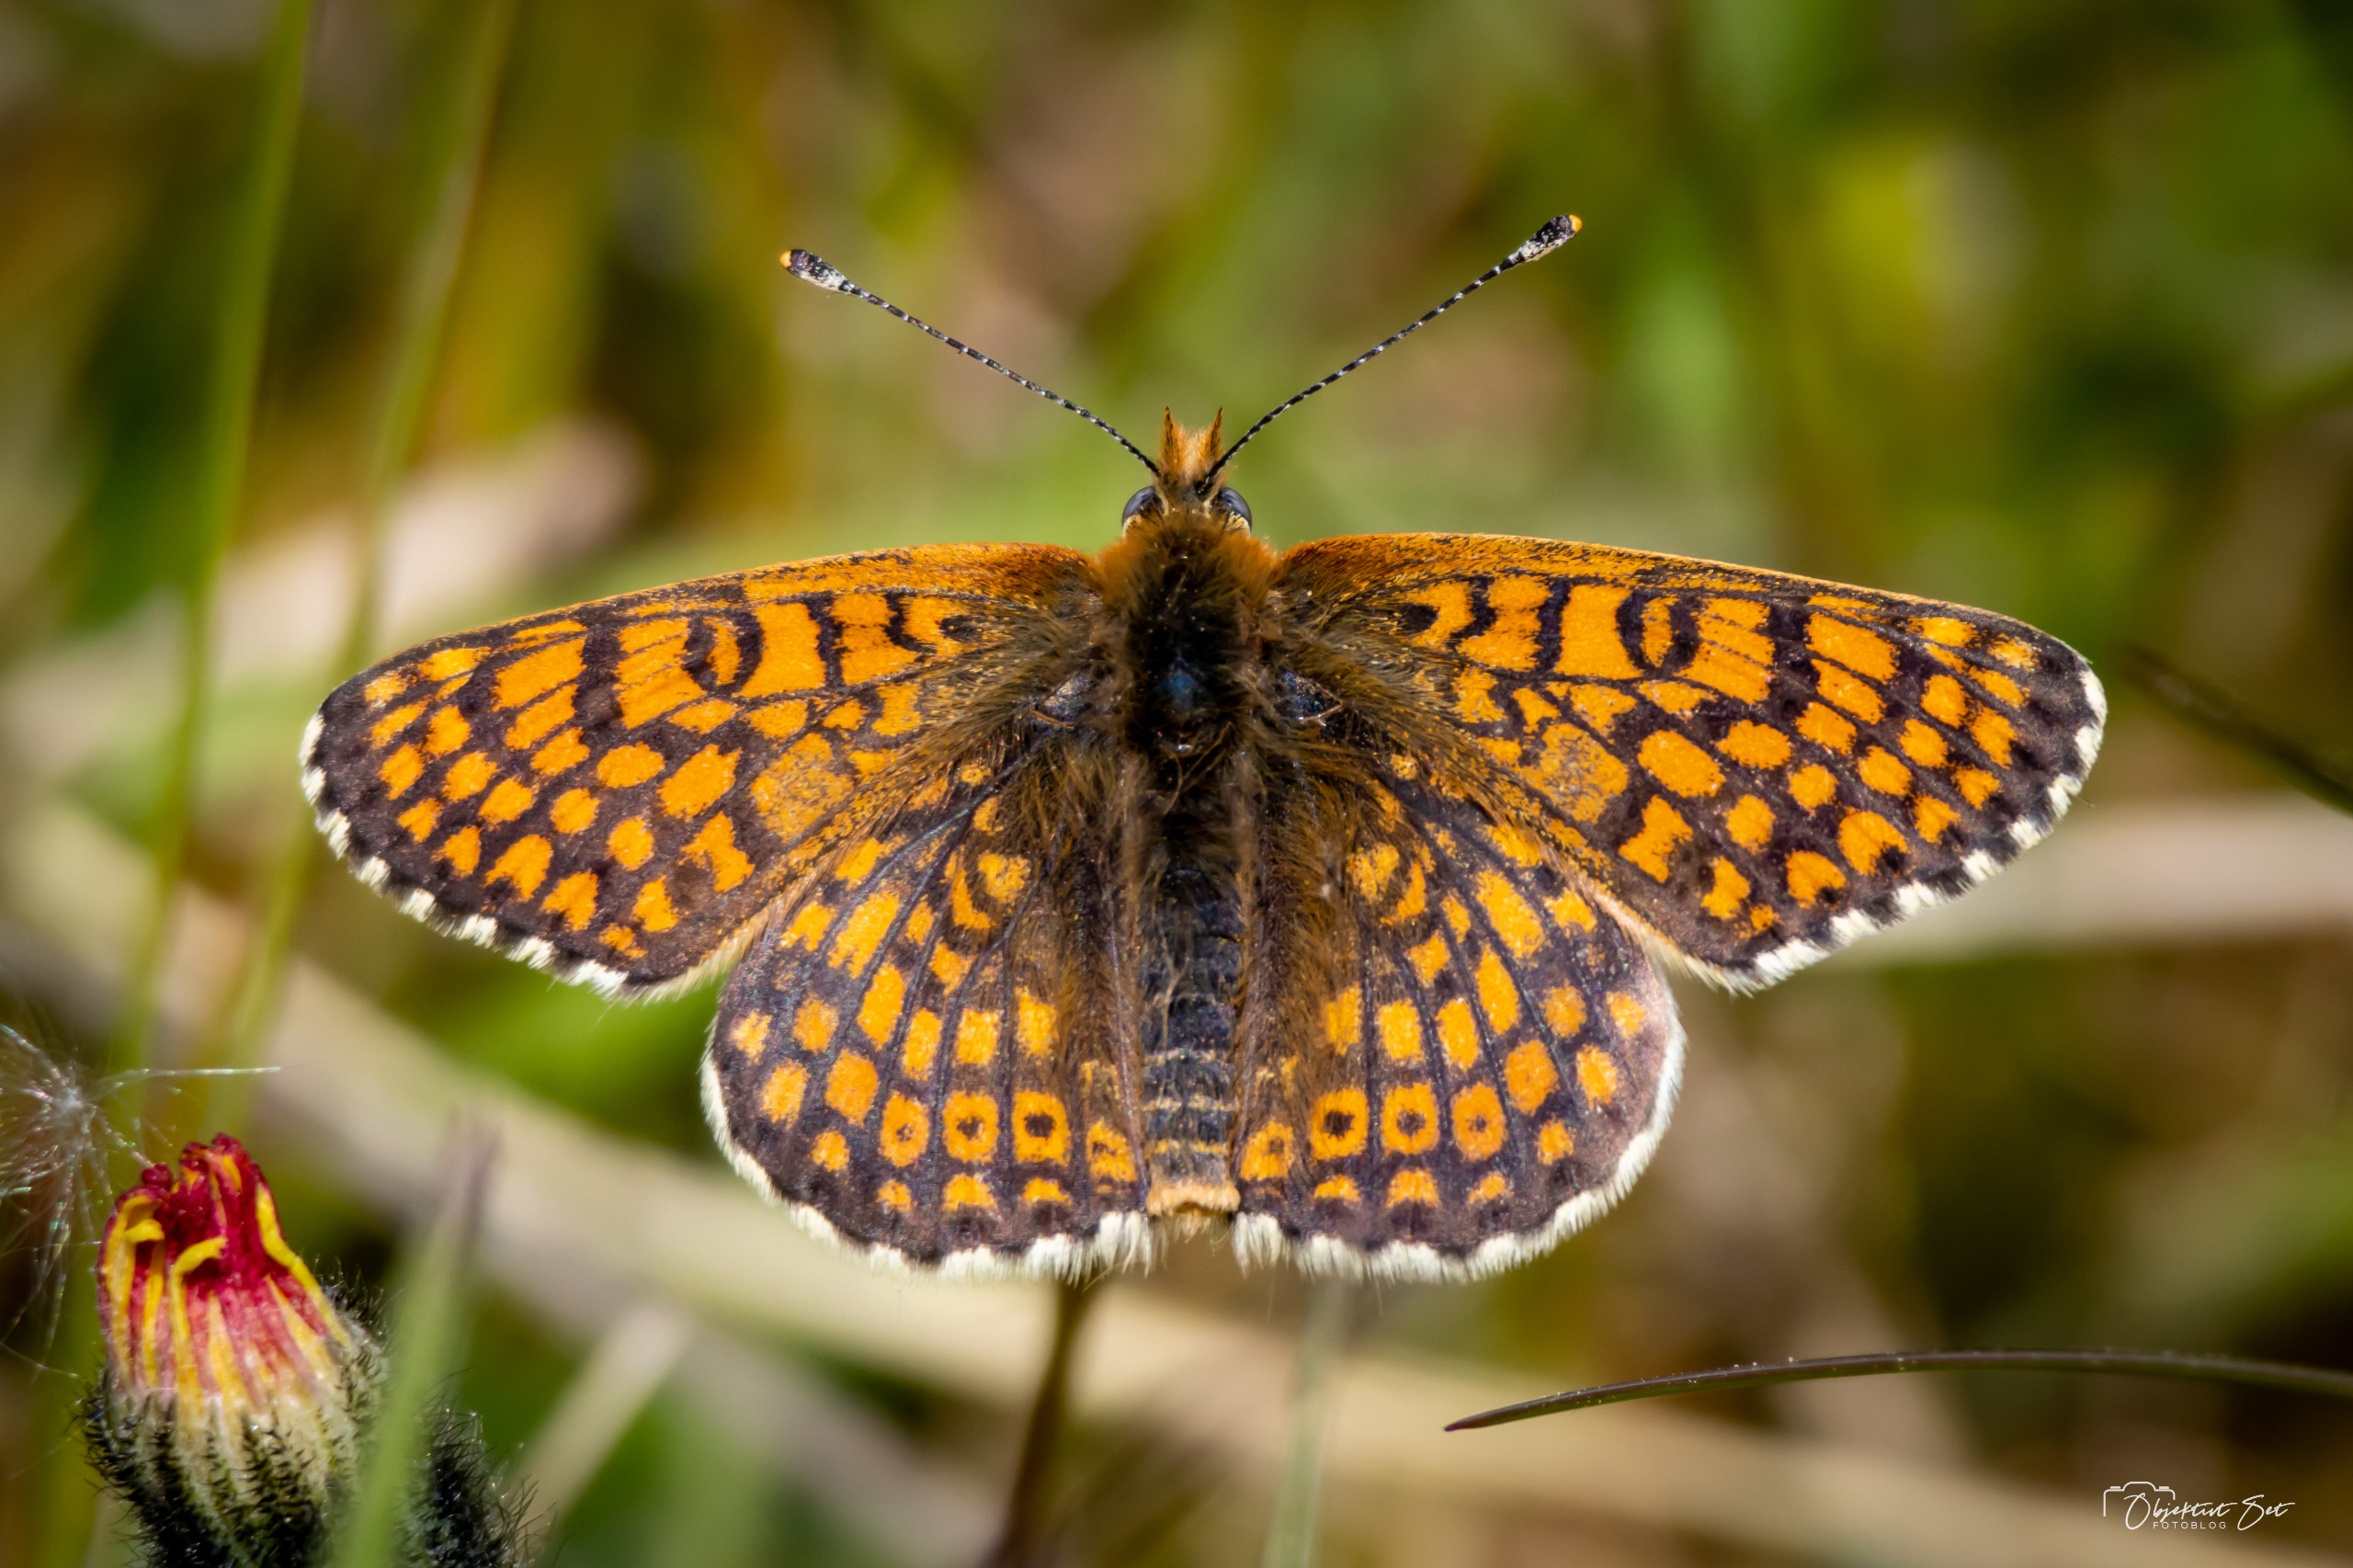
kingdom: Animalia
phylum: Arthropoda
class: Insecta
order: Lepidoptera
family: Nymphalidae
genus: Melitaea
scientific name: Melitaea cinxia
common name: Okkergul pletvinge
